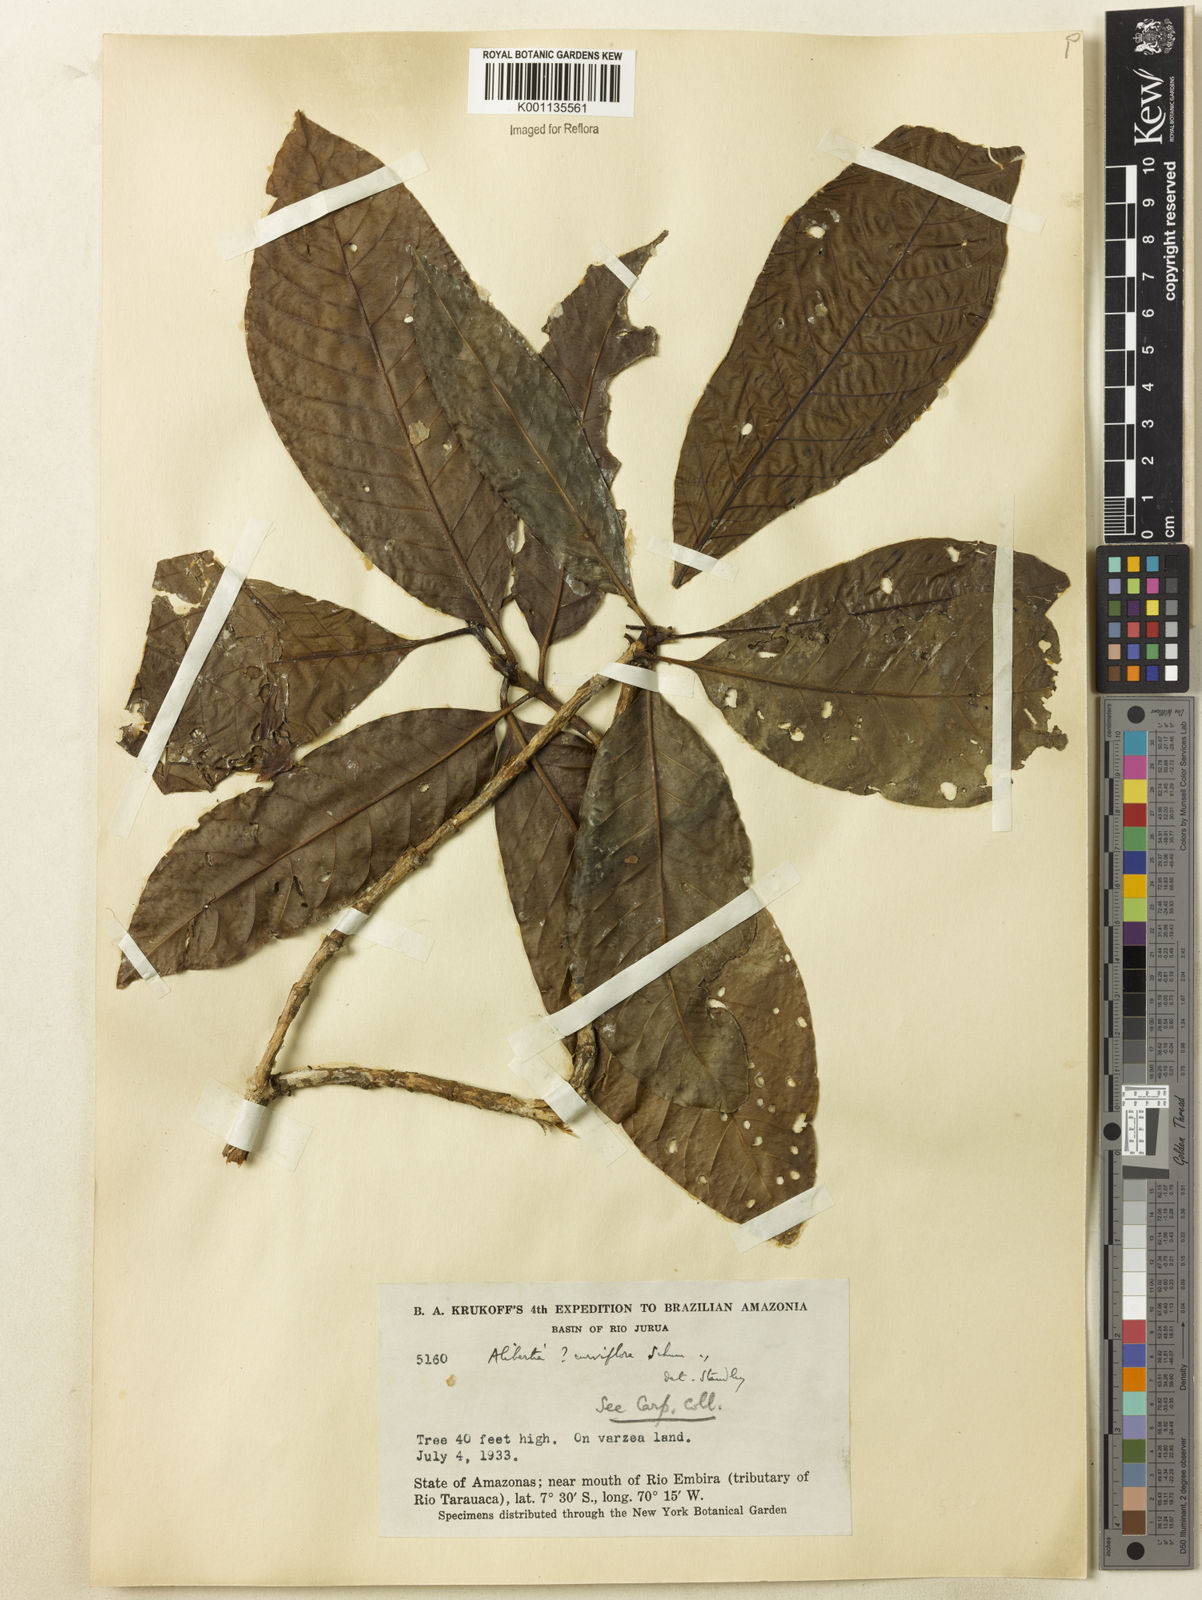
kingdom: Plantae
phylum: Tracheophyta
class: Magnoliopsida
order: Gentianales
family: Rubiaceae
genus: Agouticarpa
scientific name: Agouticarpa curviflora
